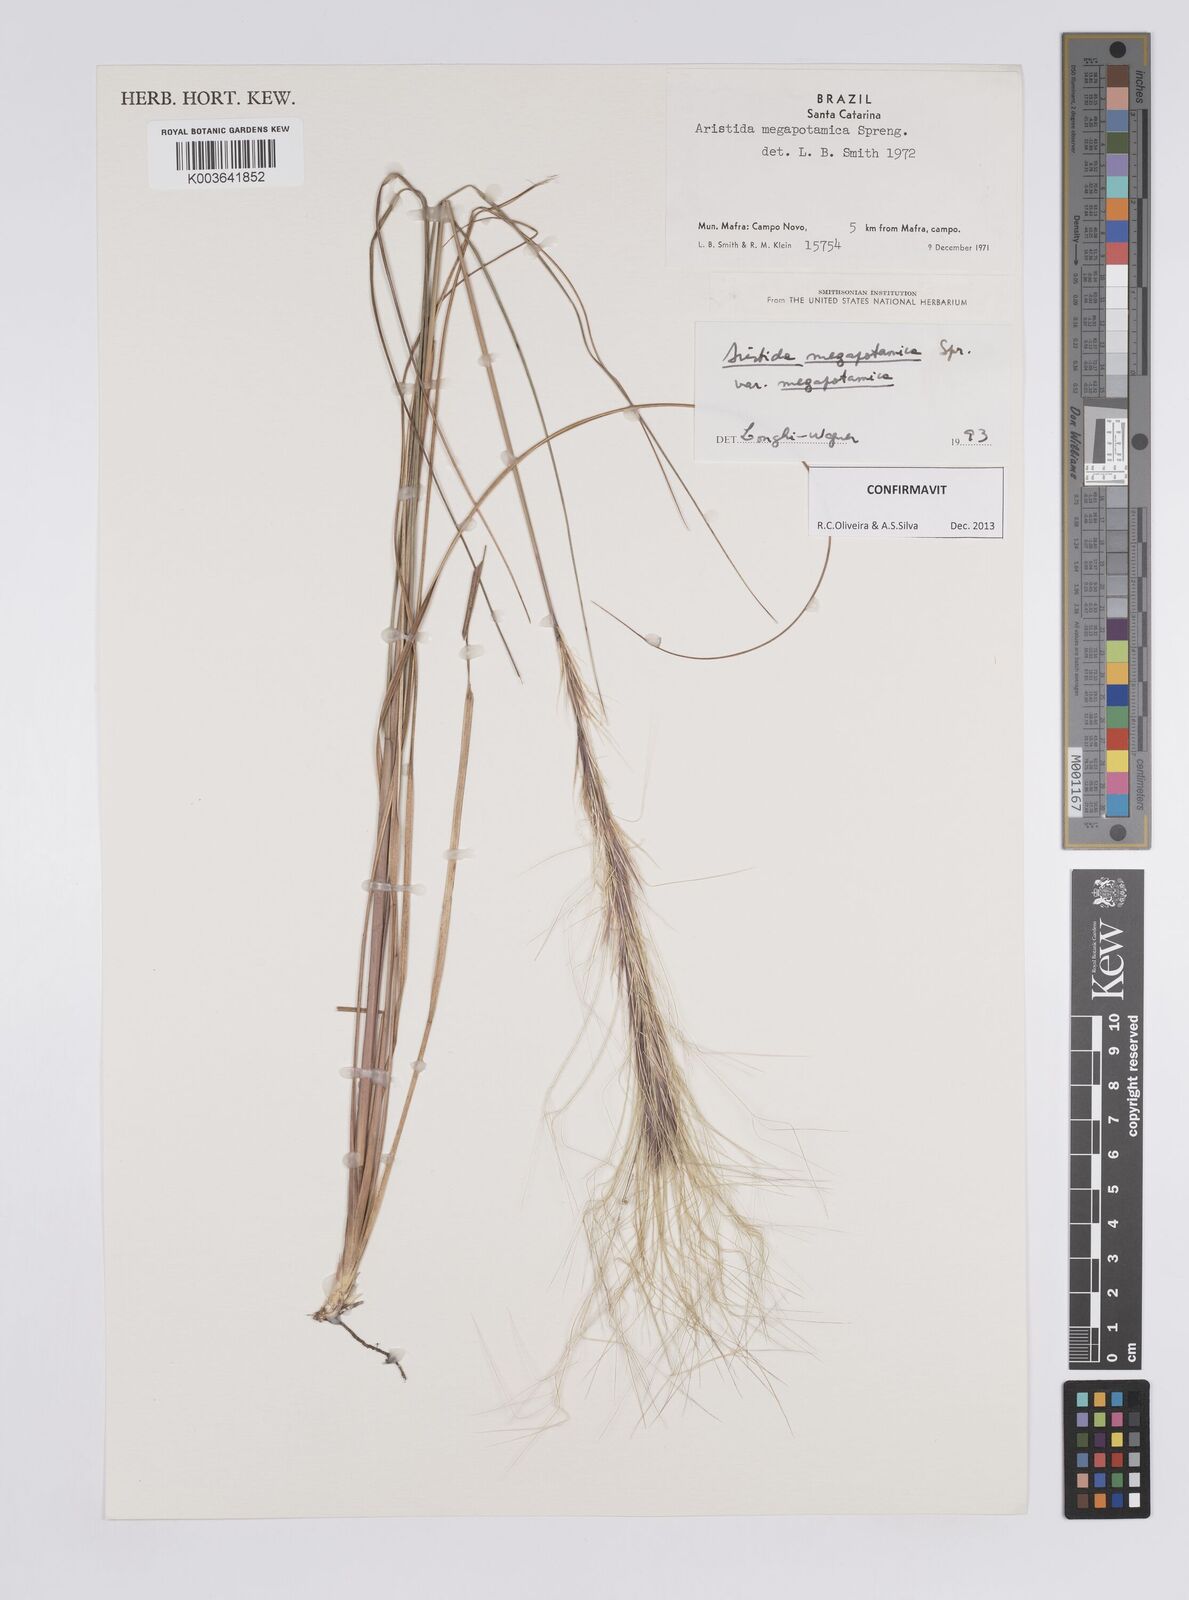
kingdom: Plantae
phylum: Tracheophyta
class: Liliopsida
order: Poales
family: Poaceae
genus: Aristida
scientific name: Aristida megapotamica
